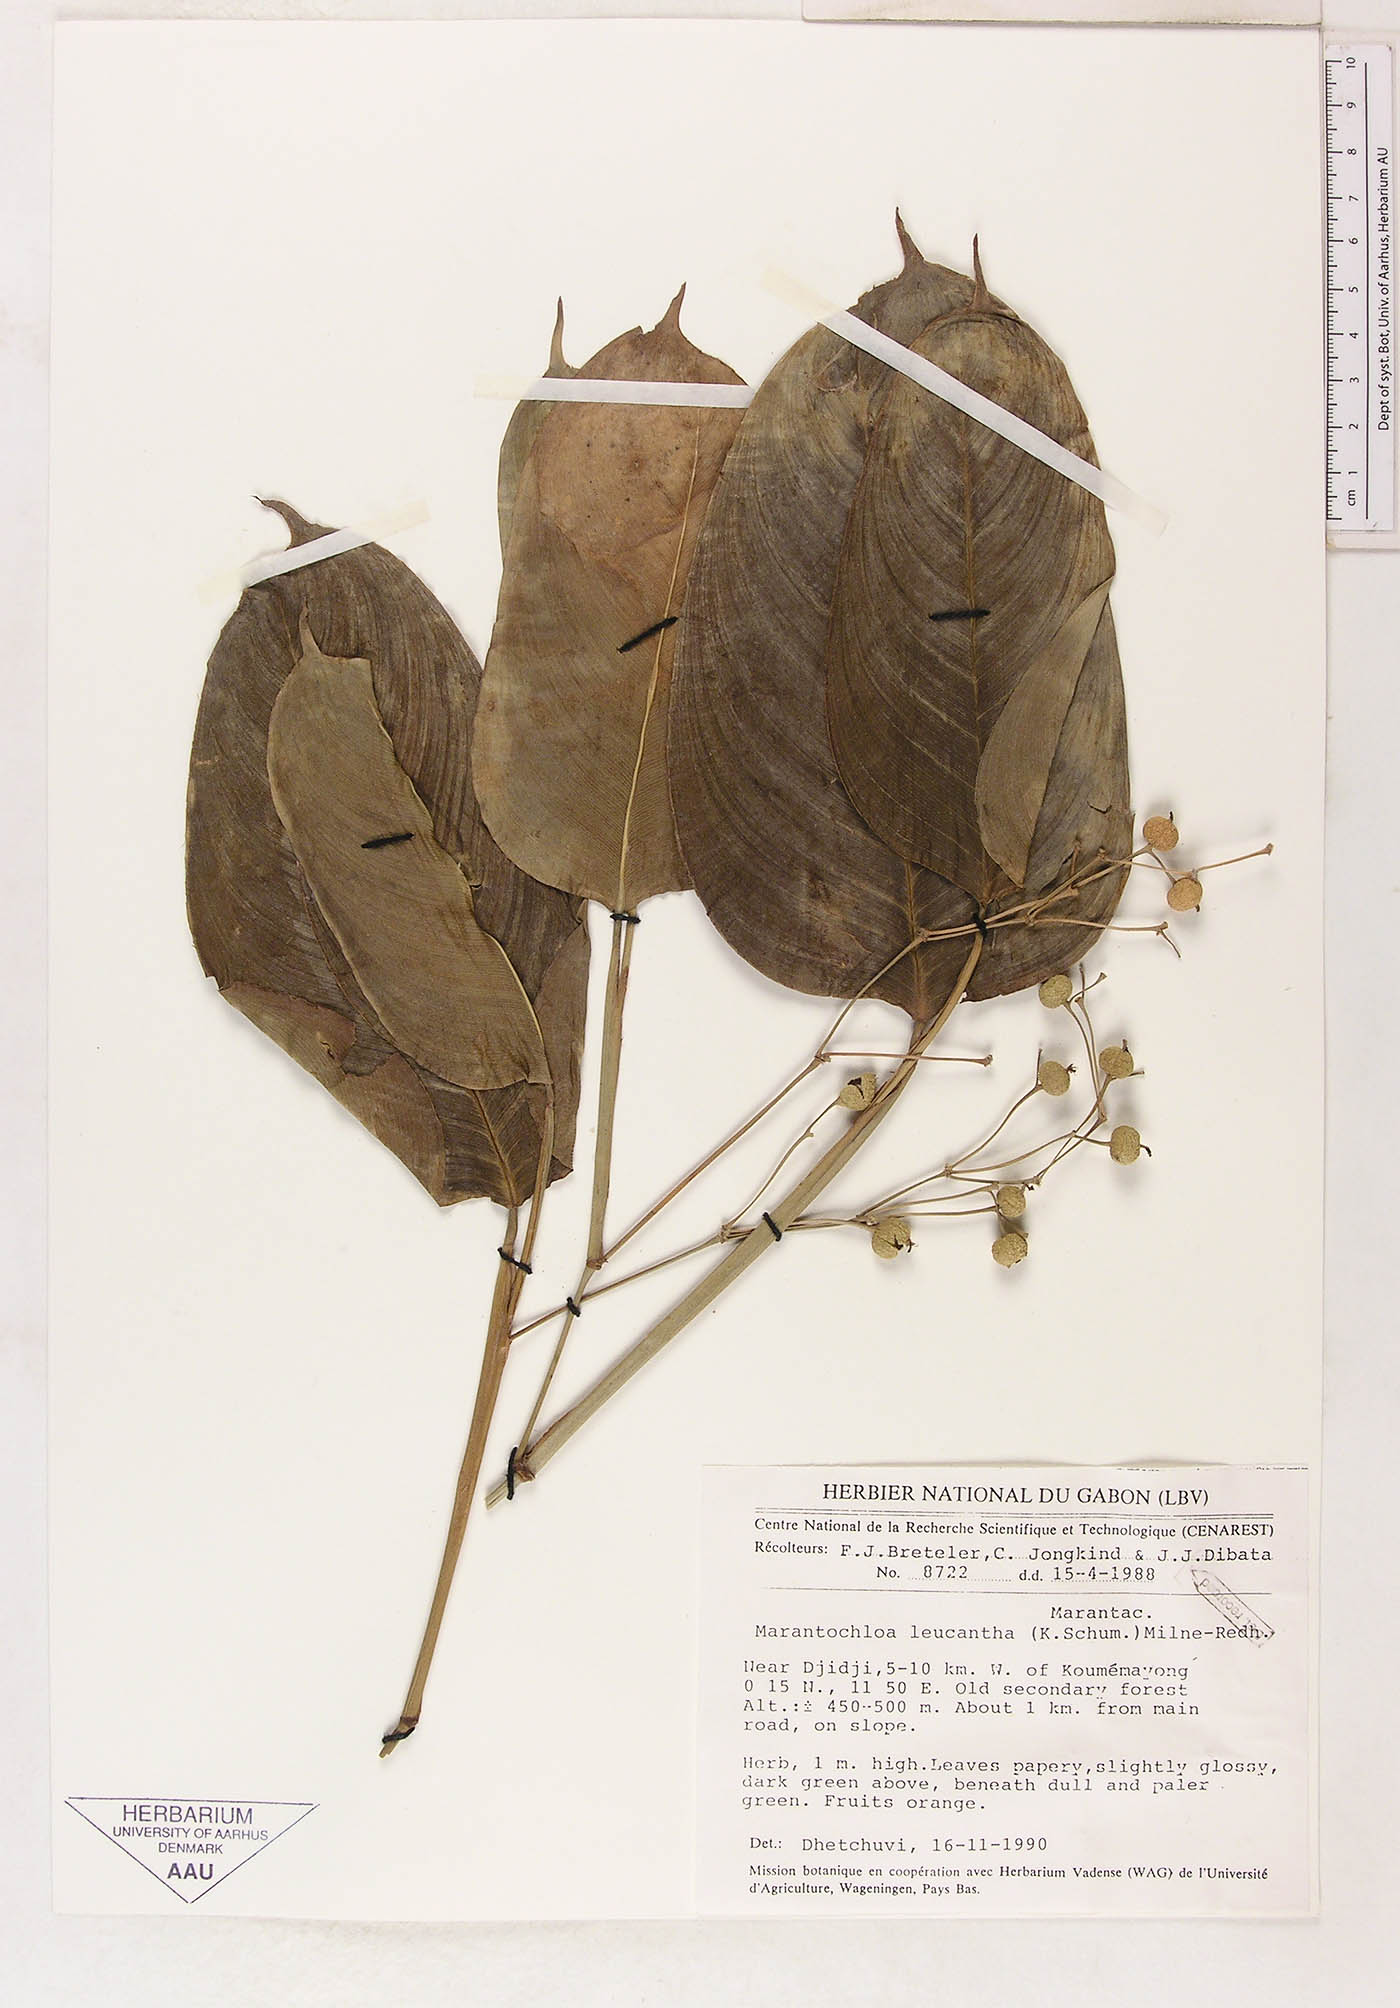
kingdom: Plantae
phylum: Tracheophyta
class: Liliopsida
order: Zingiberales
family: Marantaceae
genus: Marantochloa
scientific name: Marantochloa leucantha
